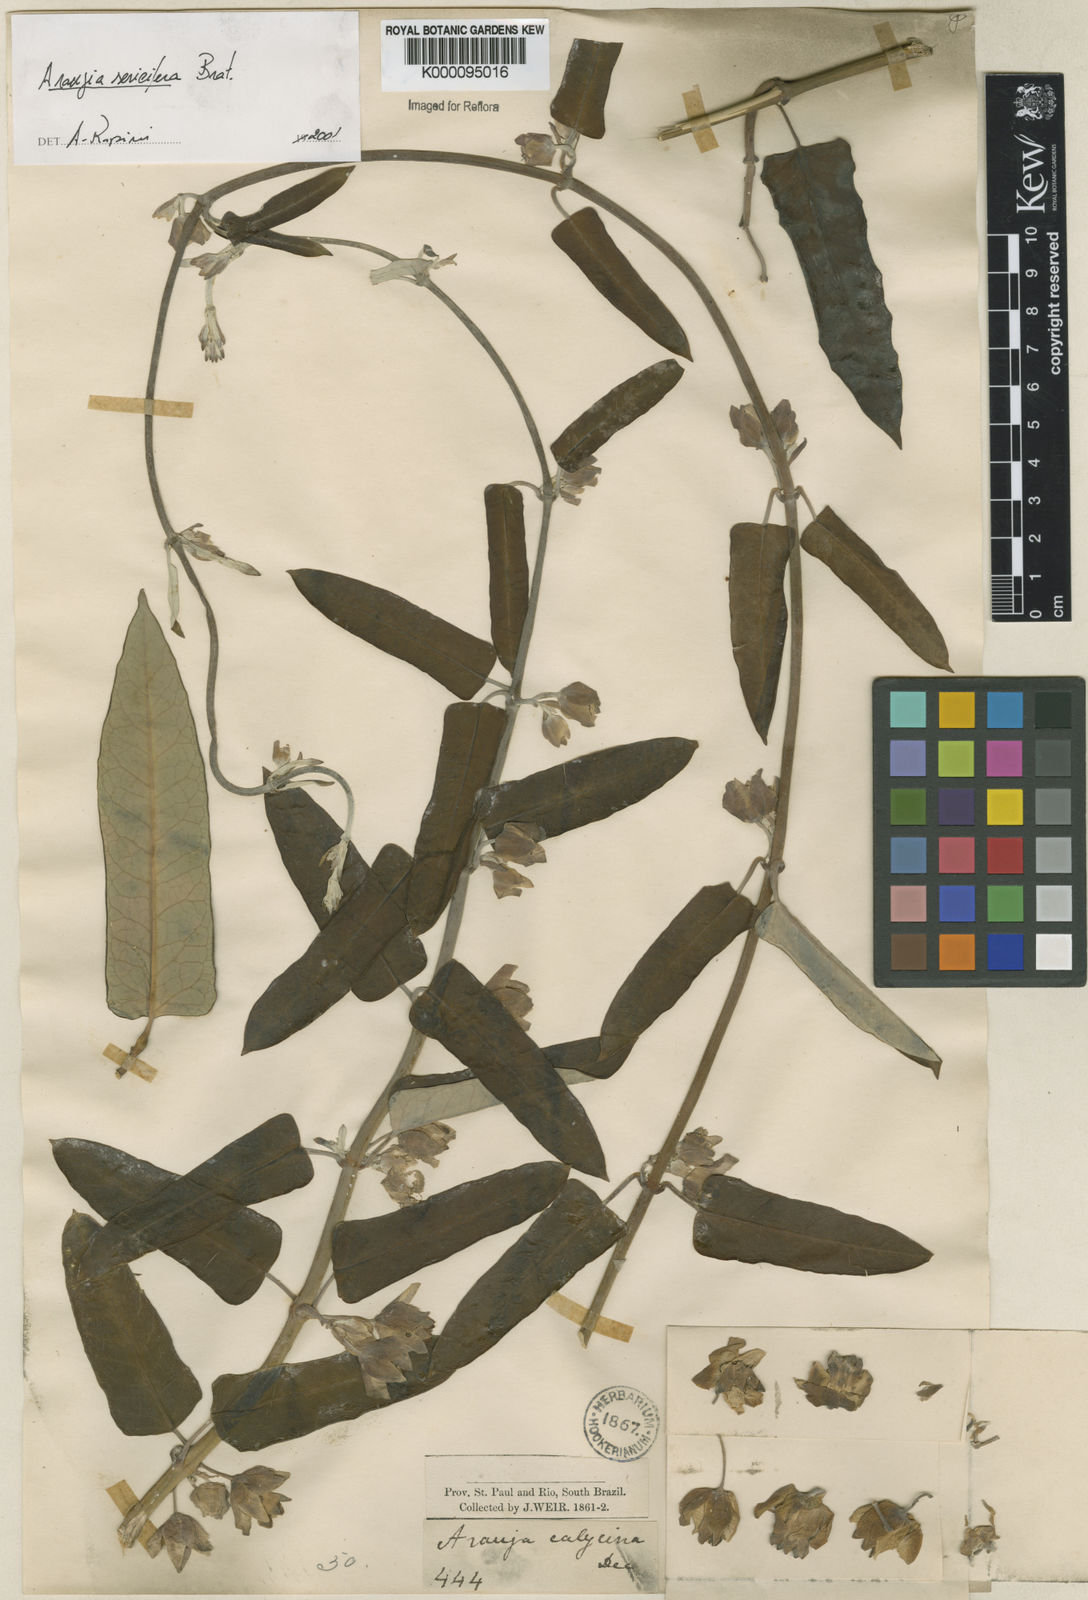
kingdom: Plantae
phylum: Tracheophyta
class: Magnoliopsida
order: Gentianales
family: Apocynaceae
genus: Araujia
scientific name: Araujia sericifera
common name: White bladderflower
